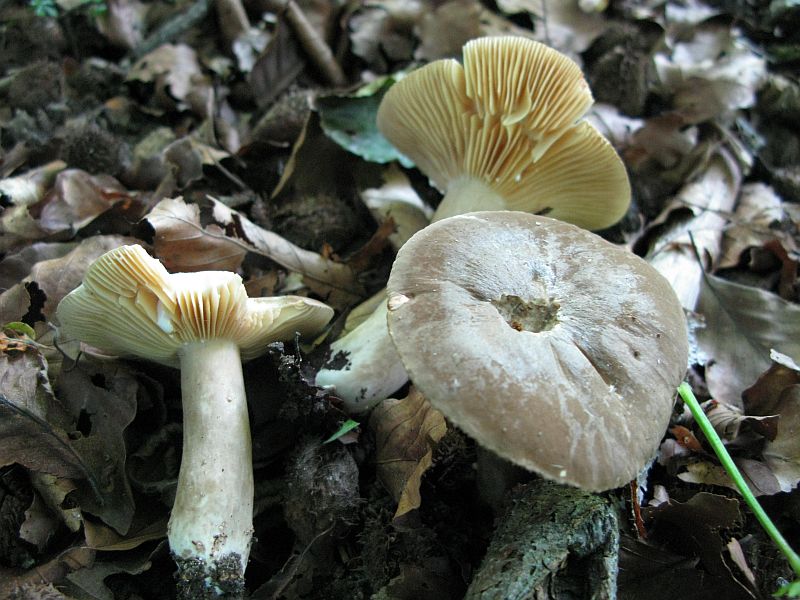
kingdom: Fungi
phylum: Basidiomycota
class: Agaricomycetes
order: Russulales
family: Russulaceae
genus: Lactarius
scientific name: Lactarius pterosporus
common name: vingesporet mælkehat
